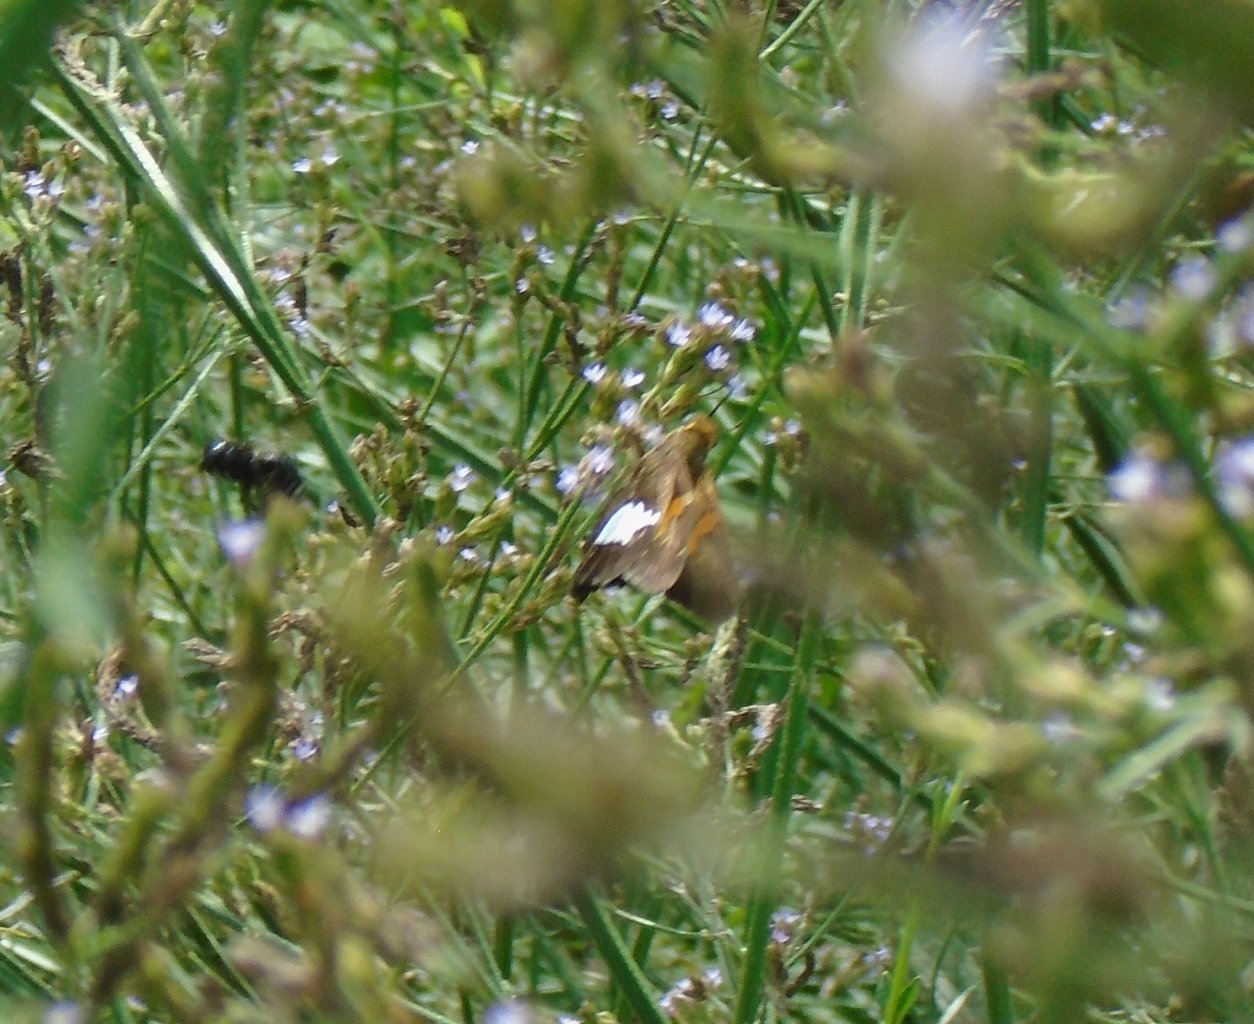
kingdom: Animalia
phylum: Arthropoda
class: Insecta
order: Lepidoptera
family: Hesperiidae
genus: Epargyreus
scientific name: Epargyreus clarus
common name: Silver-spotted Skipper
